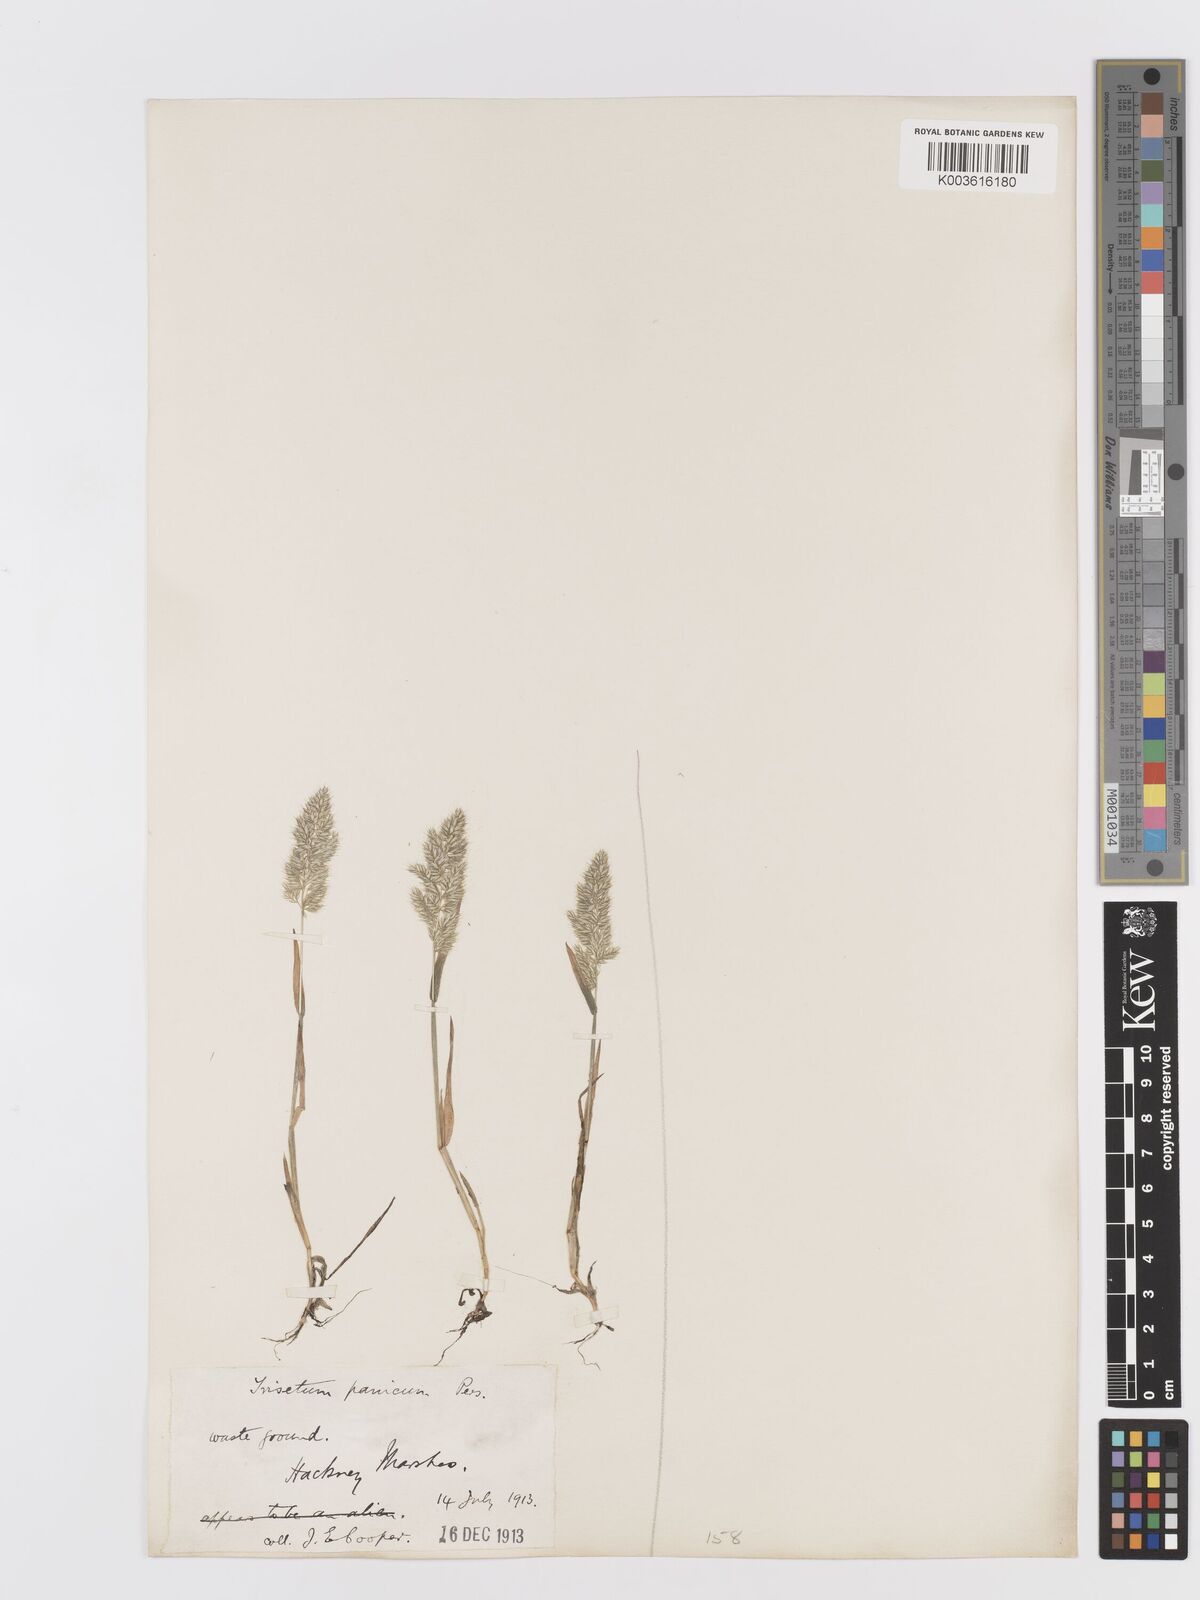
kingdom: Plantae
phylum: Tracheophyta
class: Liliopsida
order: Poales
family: Poaceae
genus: Trisetaria
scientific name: Trisetaria panicea
